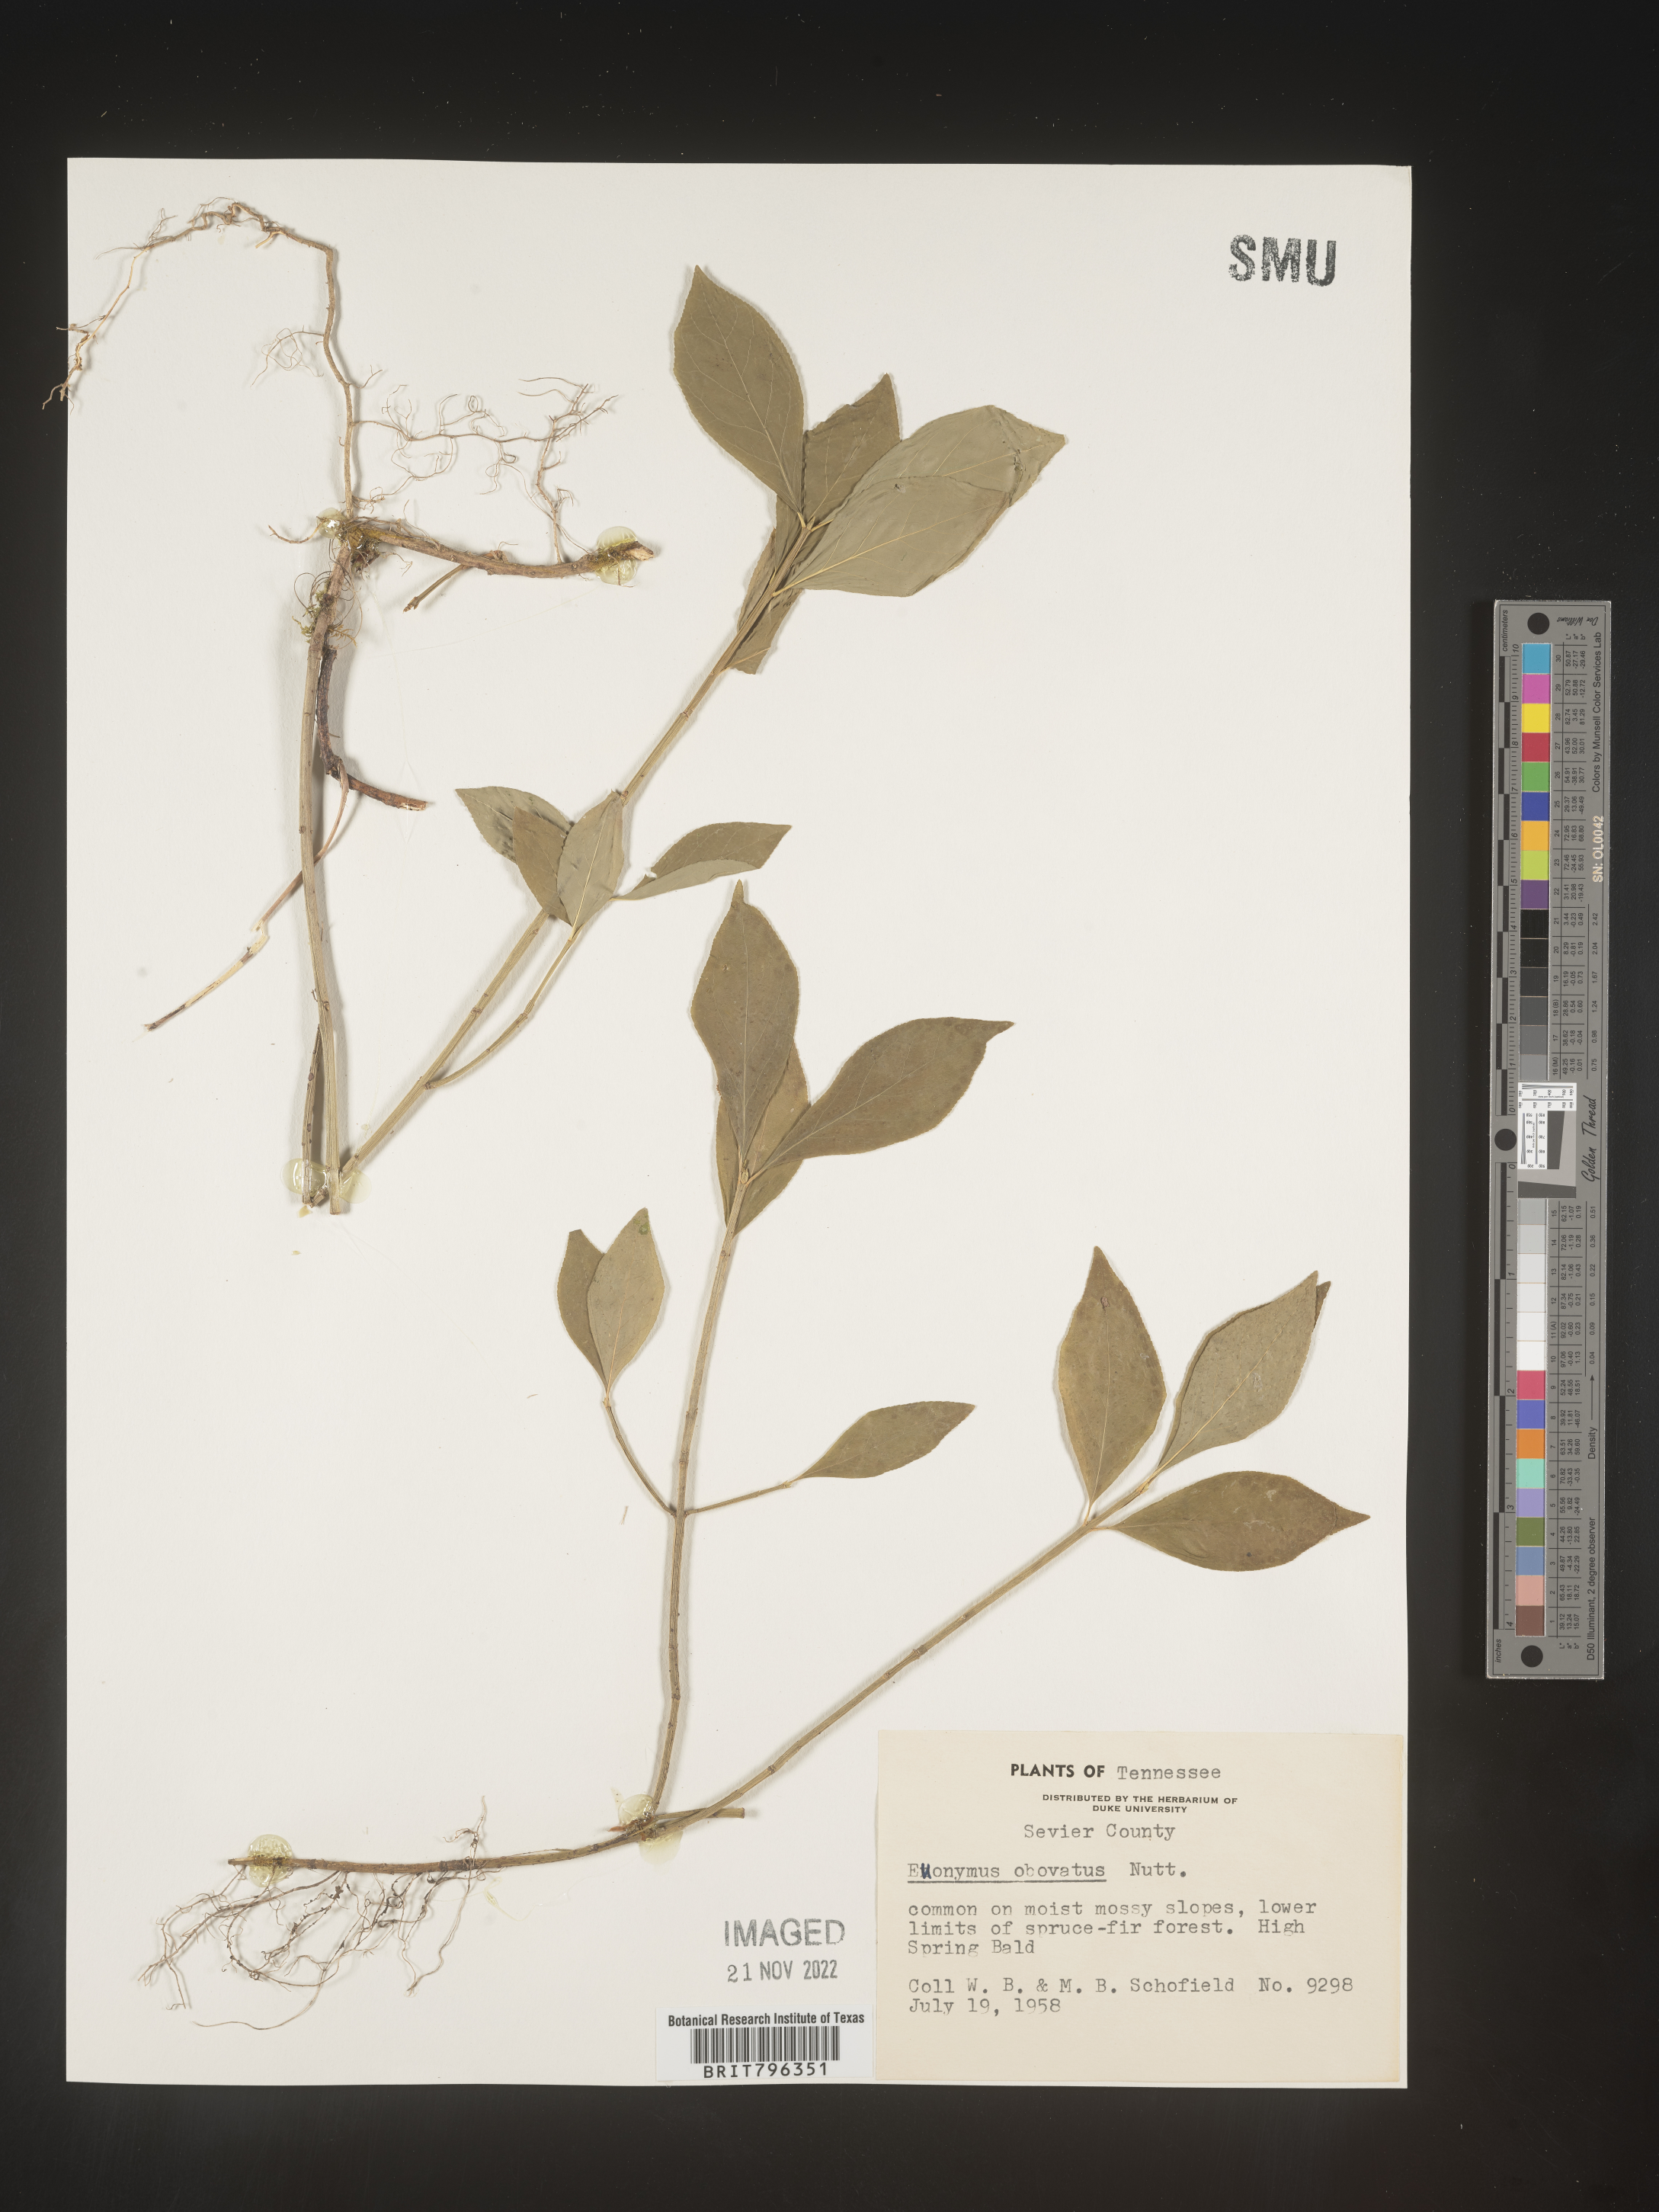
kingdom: Plantae
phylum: Tracheophyta
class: Magnoliopsida
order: Celastrales
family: Celastraceae
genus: Euonymus
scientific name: Euonymus obovatus
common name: Running strawberry-bush
